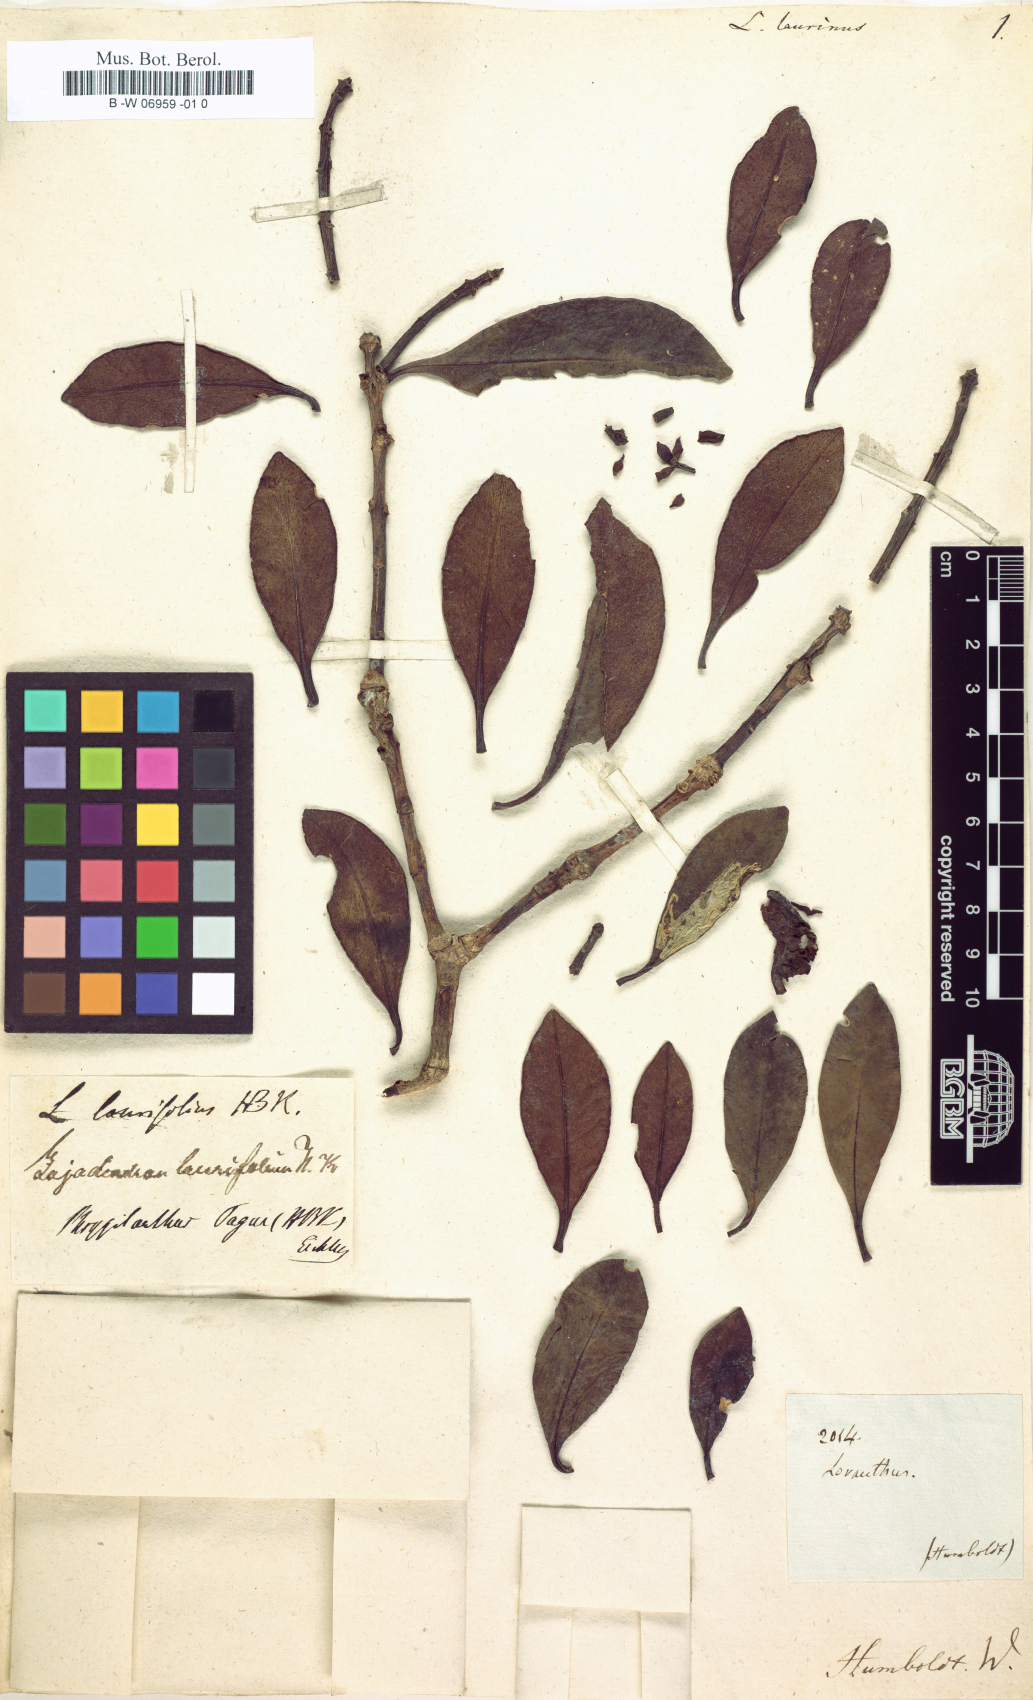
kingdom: Plantae
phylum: Tracheophyta
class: Magnoliopsida
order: Santalales
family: Loranthaceae
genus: Gaiadendron
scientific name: Gaiadendron punctatum
